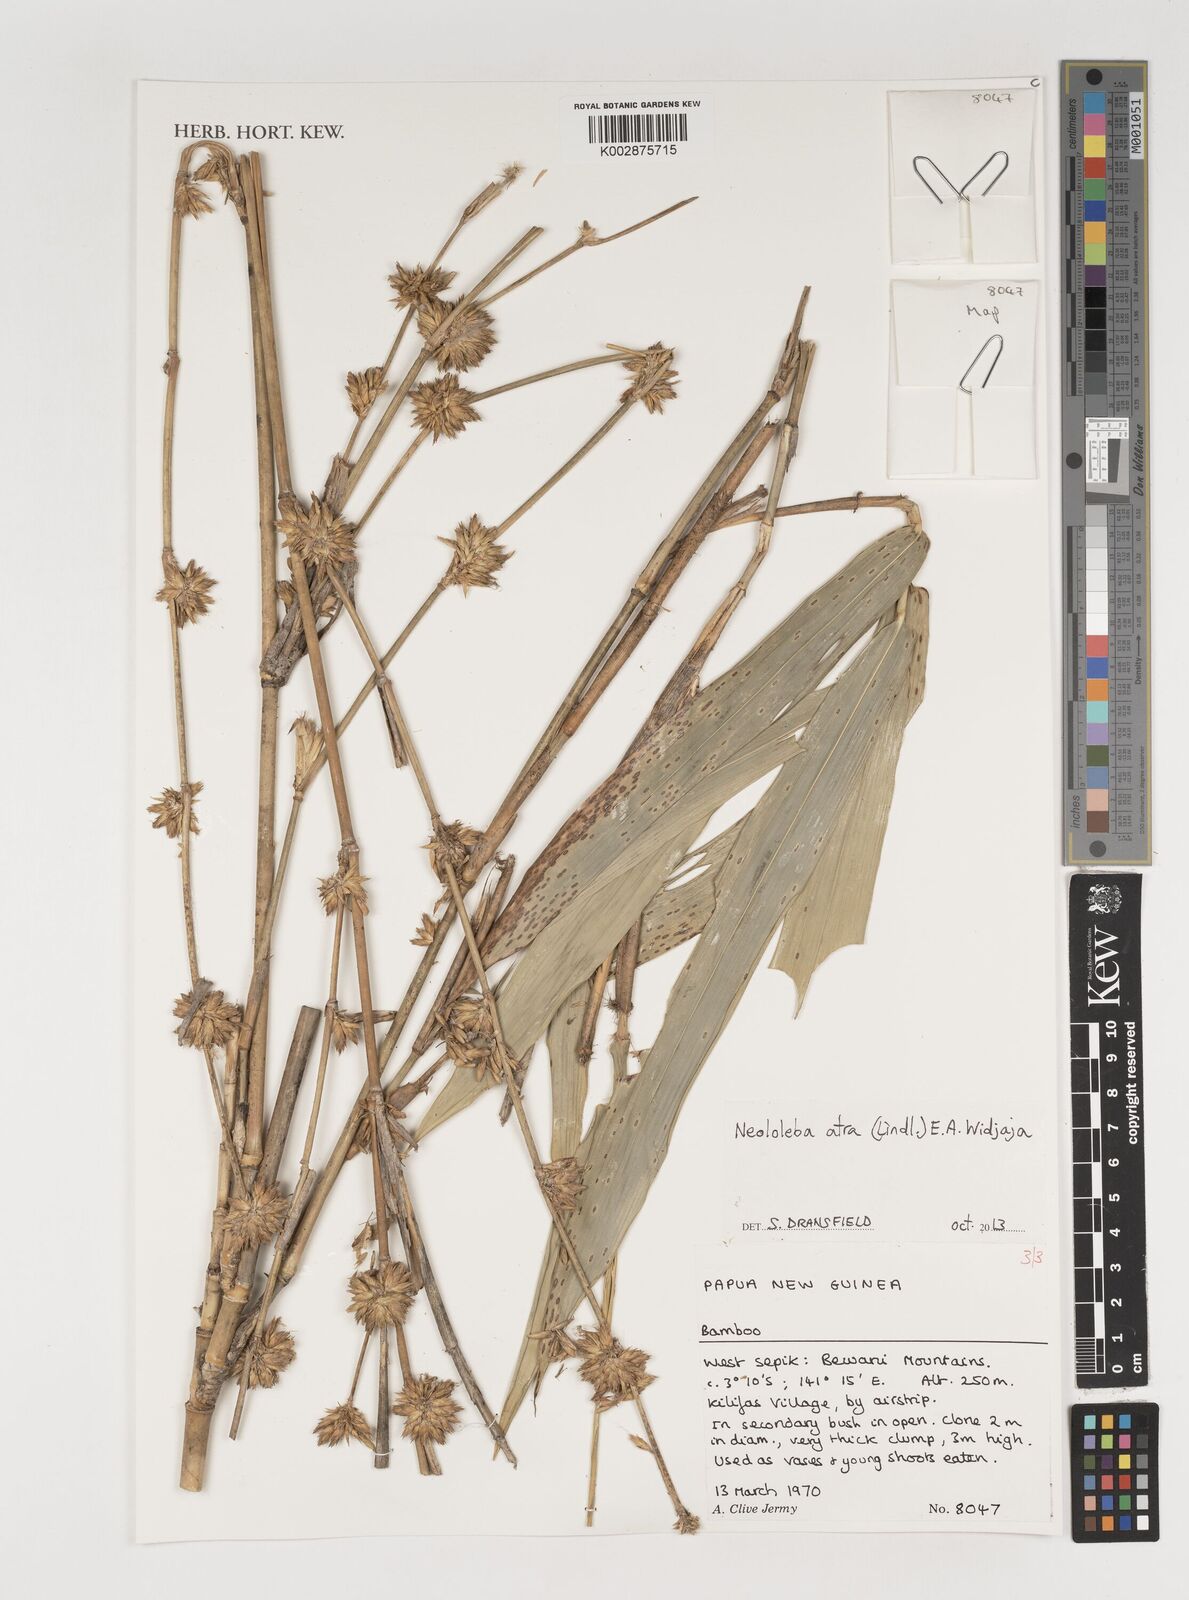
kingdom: Plantae
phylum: Tracheophyta
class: Liliopsida
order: Poales
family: Poaceae
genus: Neololeba
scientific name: Neololeba atra
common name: Cape bamboo
